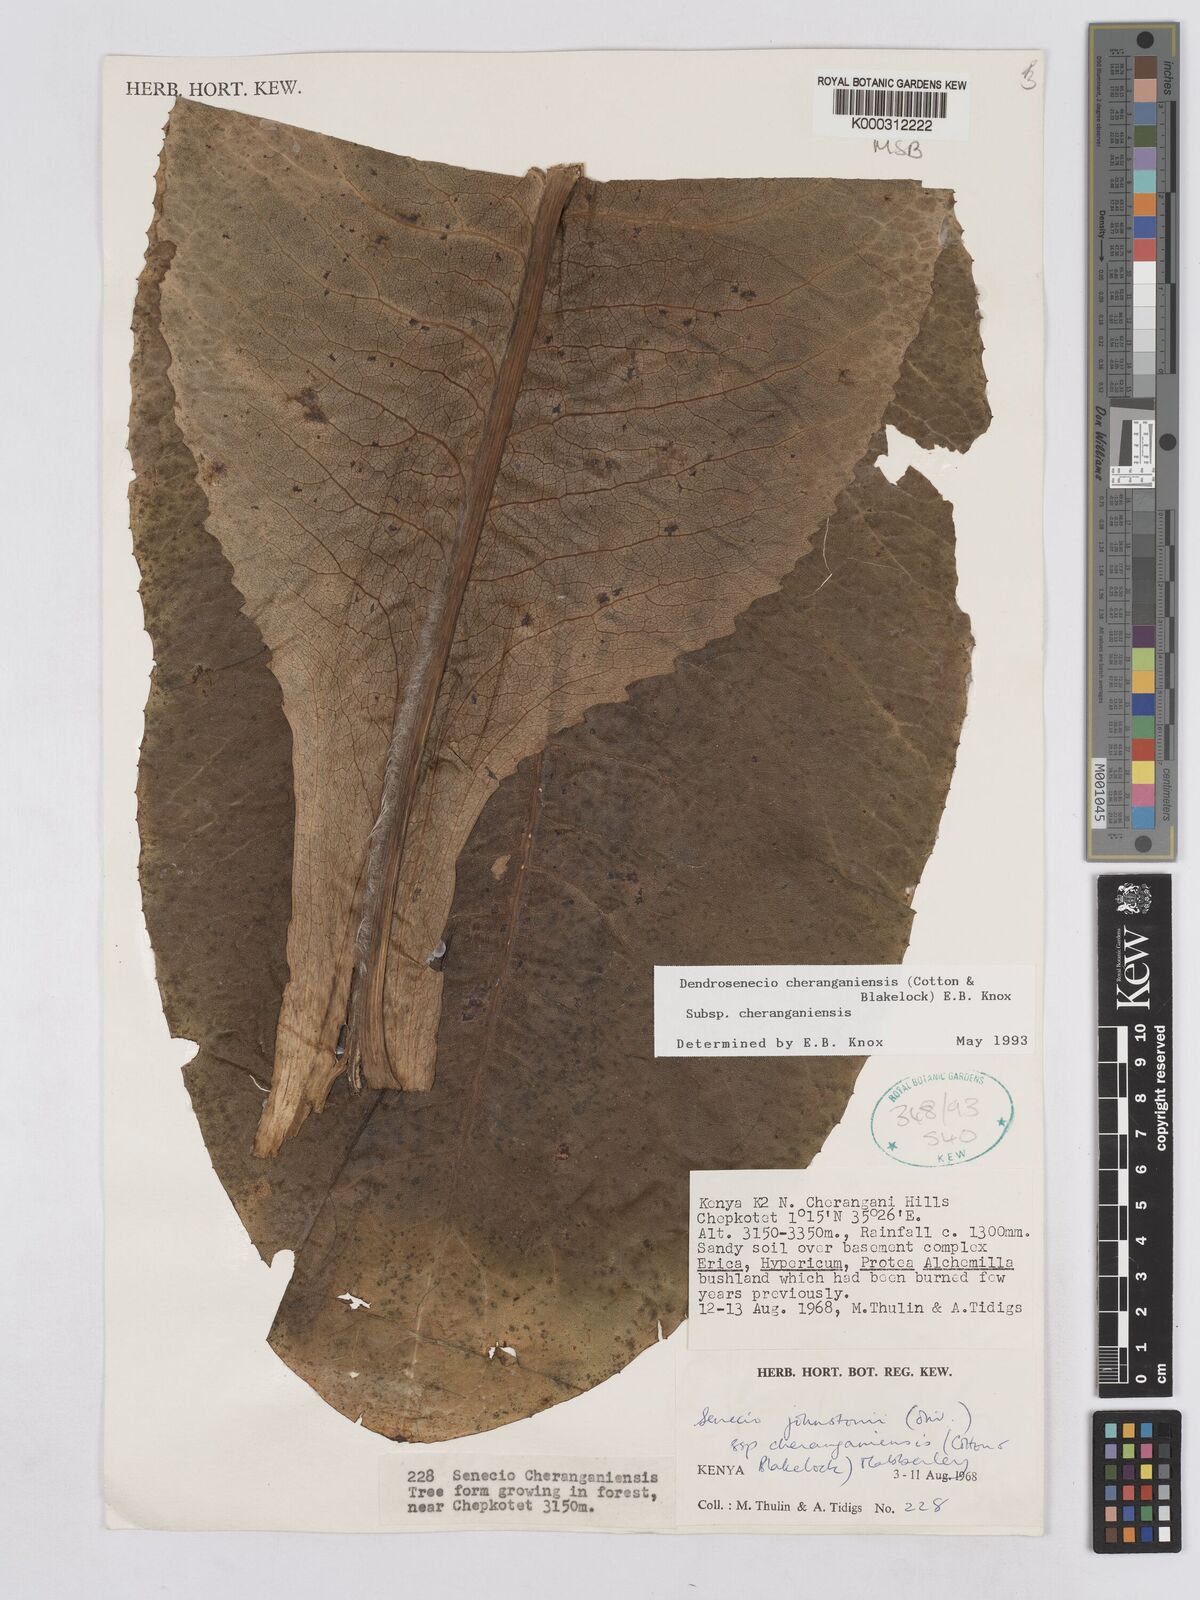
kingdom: Plantae
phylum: Tracheophyta
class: Magnoliopsida
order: Asterales
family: Asteraceae
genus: Dendrosenecio
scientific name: Dendrosenecio cheranganiensis
